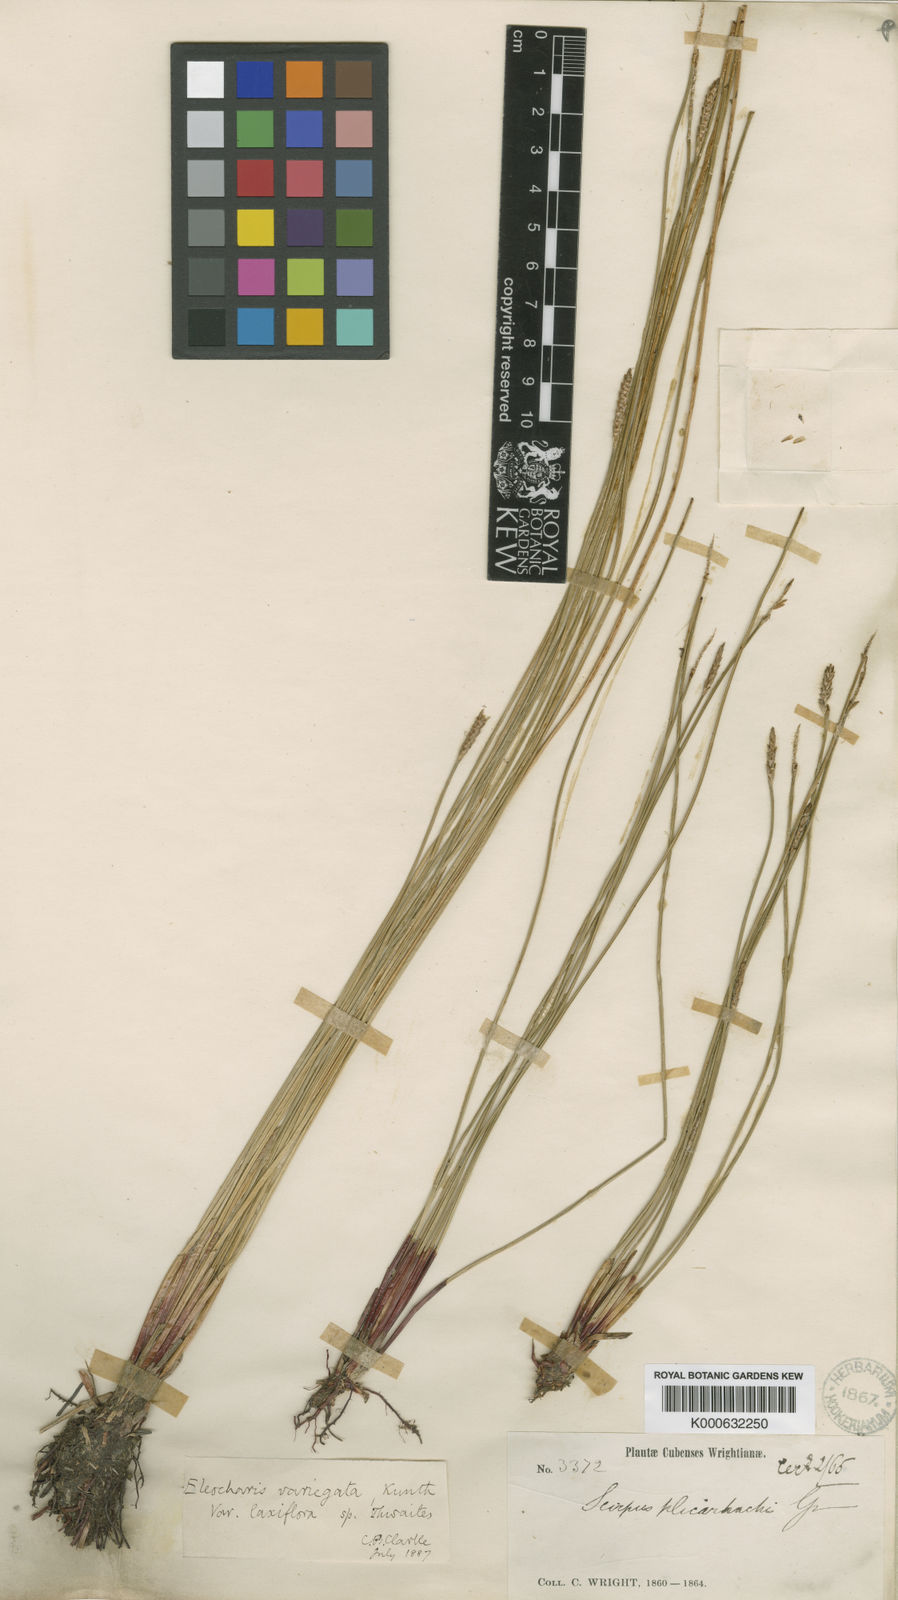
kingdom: Plantae
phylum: Tracheophyta
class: Liliopsida
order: Poales
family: Cyperaceae
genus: Eleocharis
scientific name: Eleocharis plicarhachis
